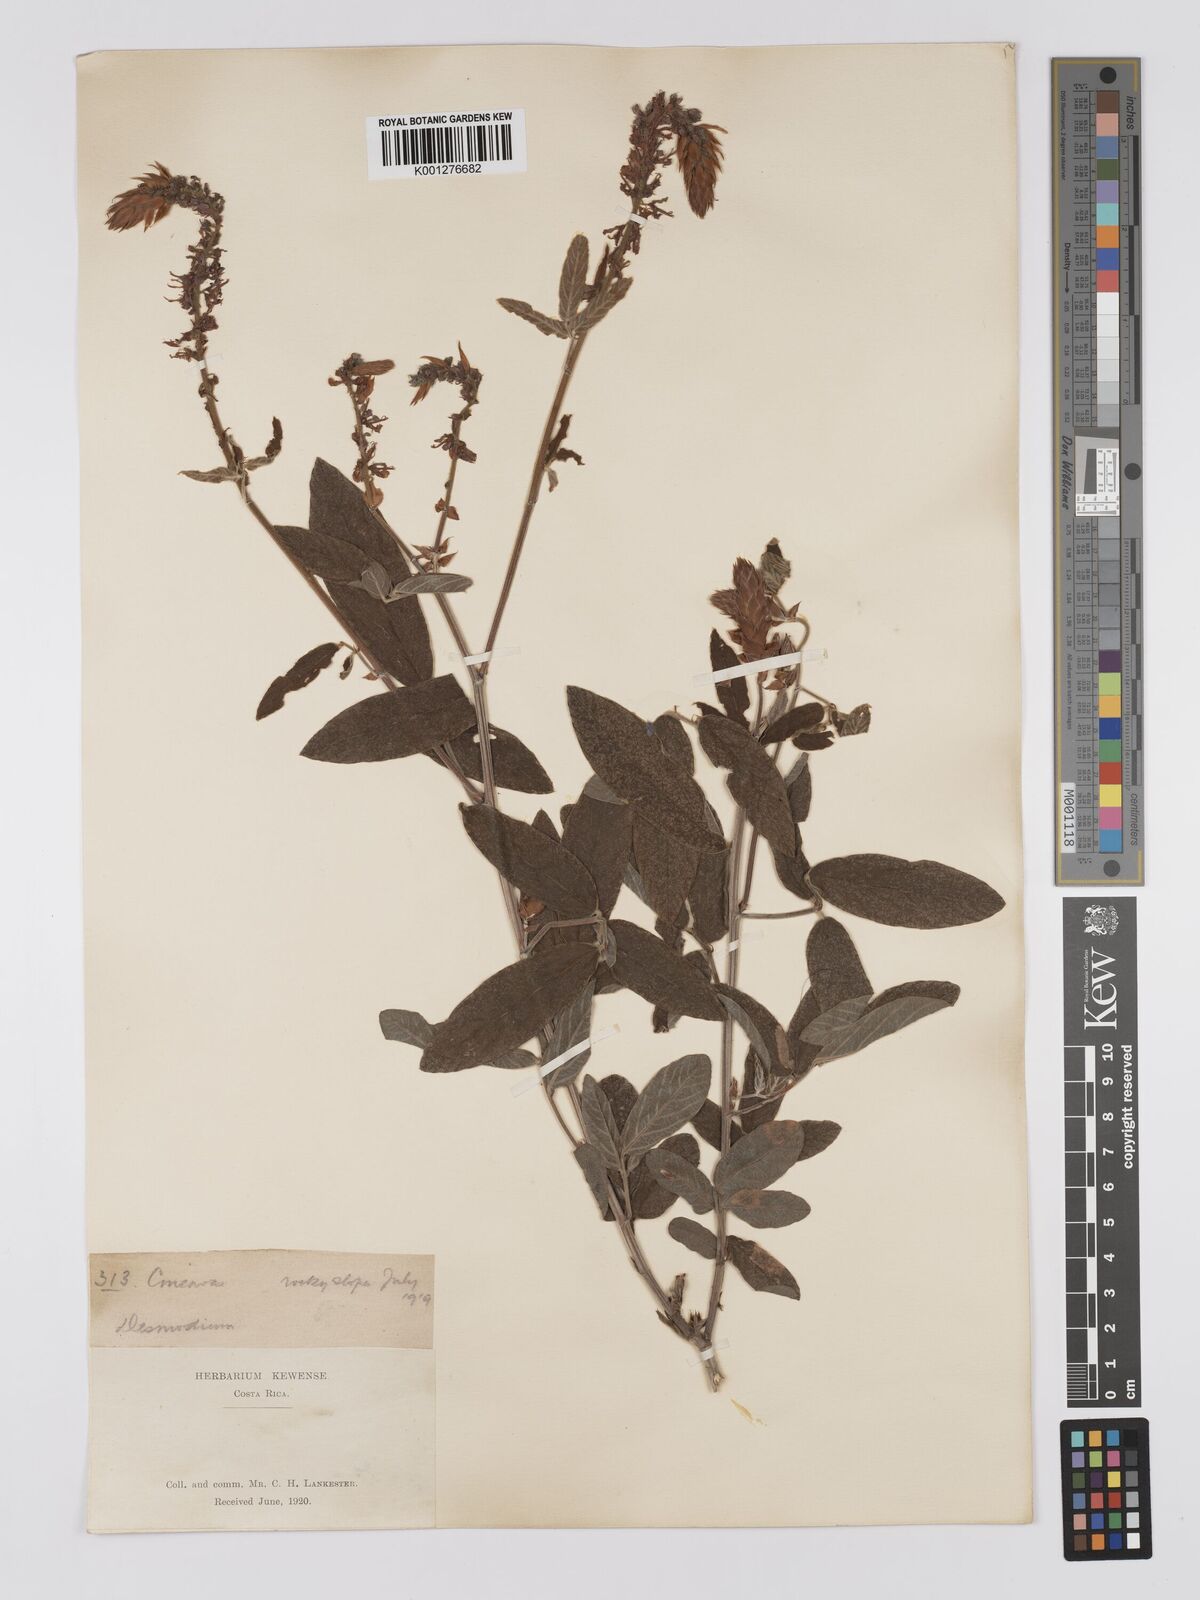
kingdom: Plantae
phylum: Tracheophyta
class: Magnoliopsida
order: Fabales
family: Fabaceae
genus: Desmodium
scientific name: Desmodium sericophyllum
